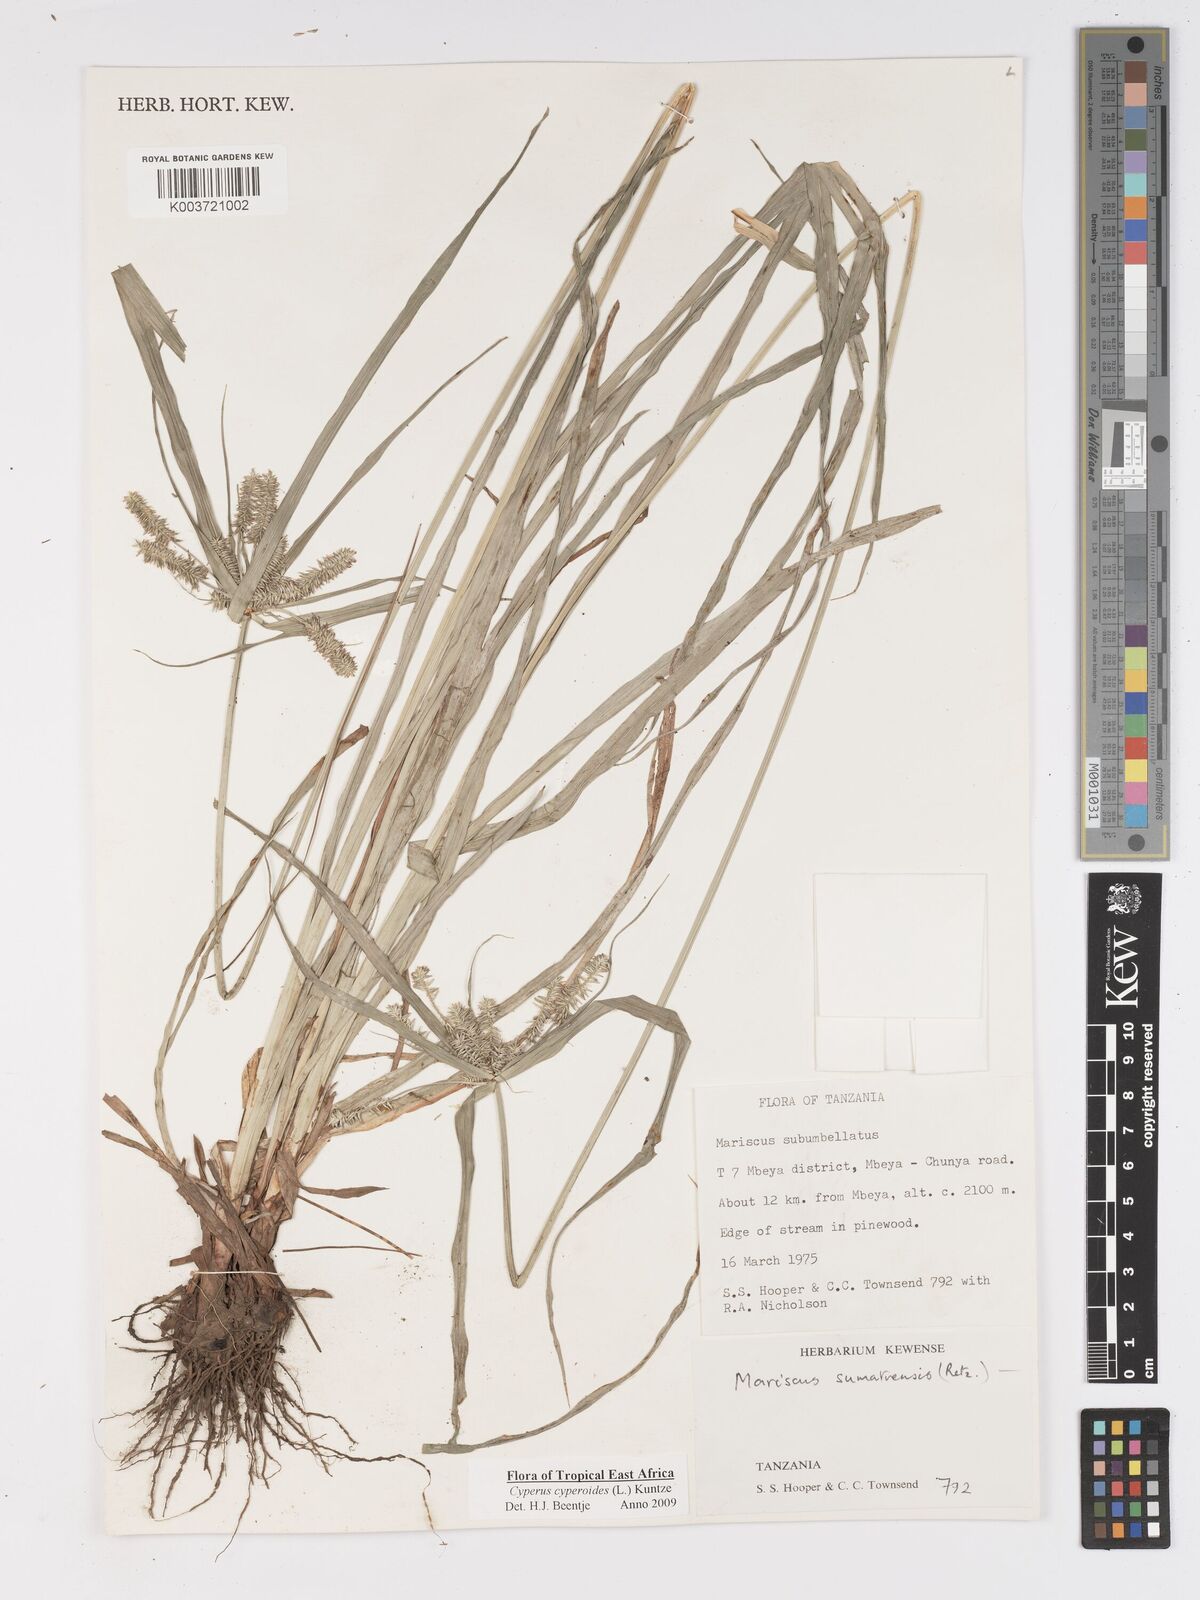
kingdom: Plantae
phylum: Tracheophyta
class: Liliopsida
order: Poales
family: Cyperaceae
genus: Cyperus
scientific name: Cyperus
